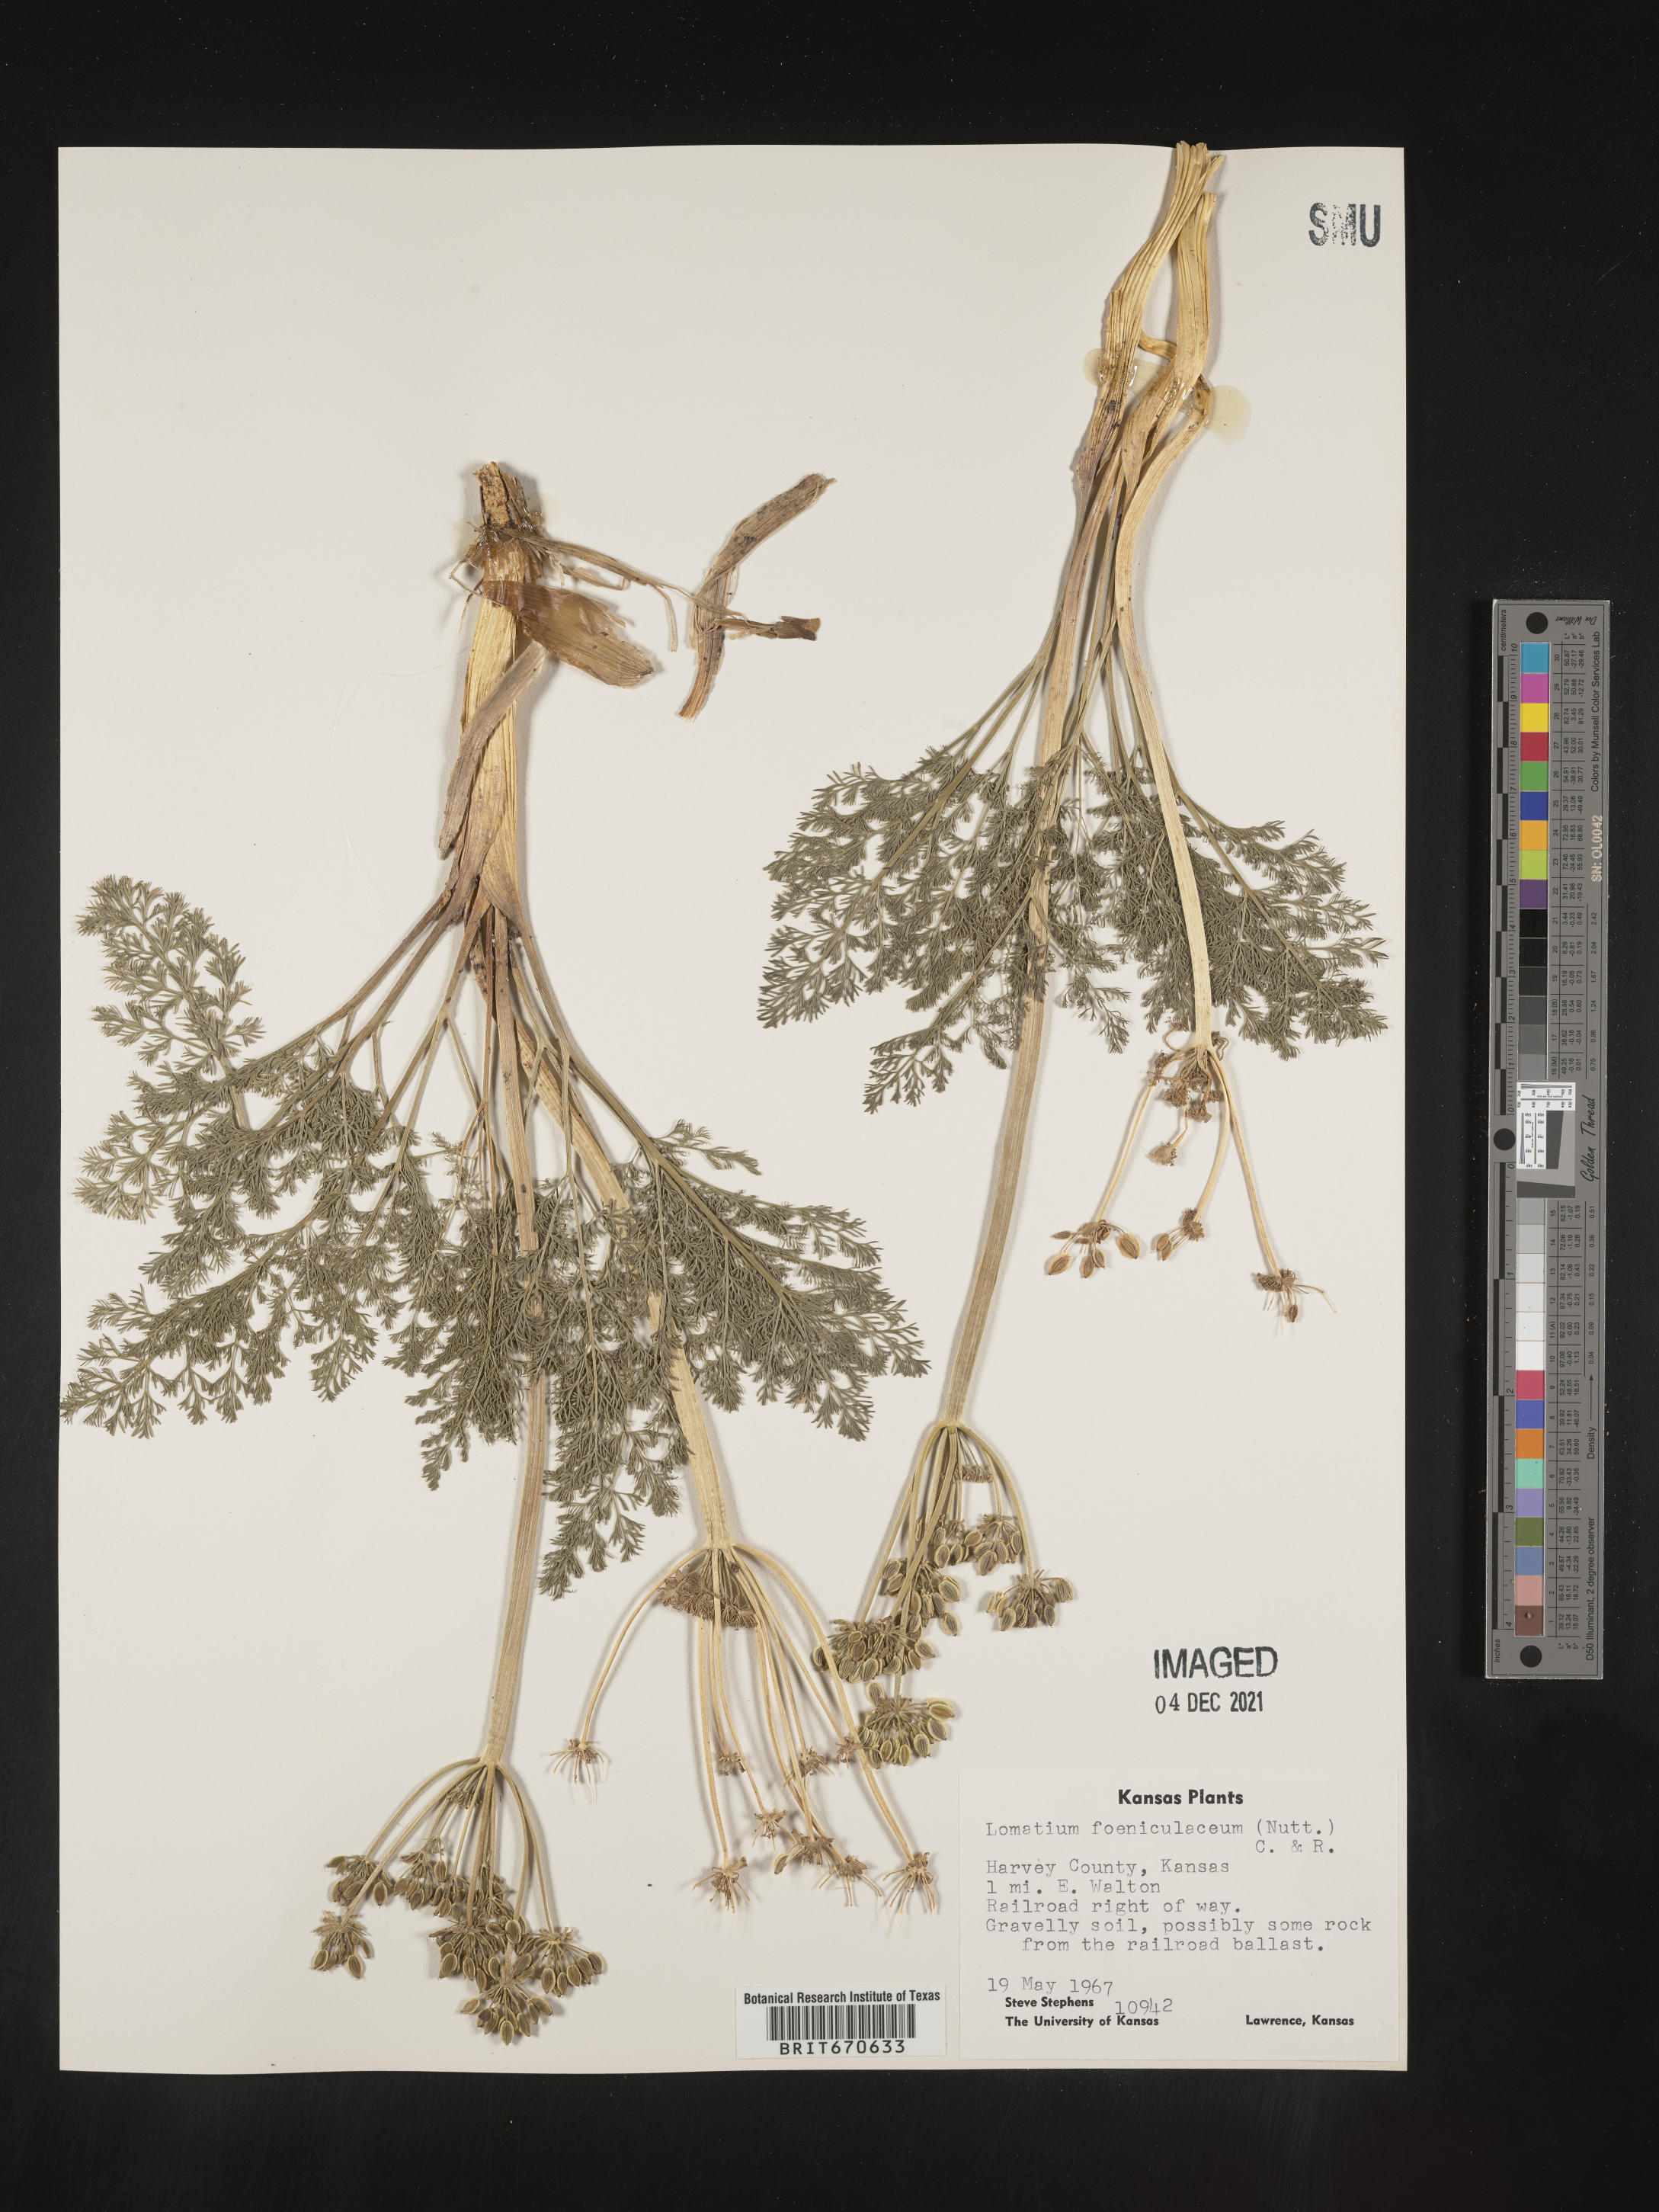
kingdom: Plantae
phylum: Tracheophyta
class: Magnoliopsida
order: Apiales
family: Apiaceae
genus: Lomatium
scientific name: Lomatium foeniculaceum
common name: Desert-parsley
